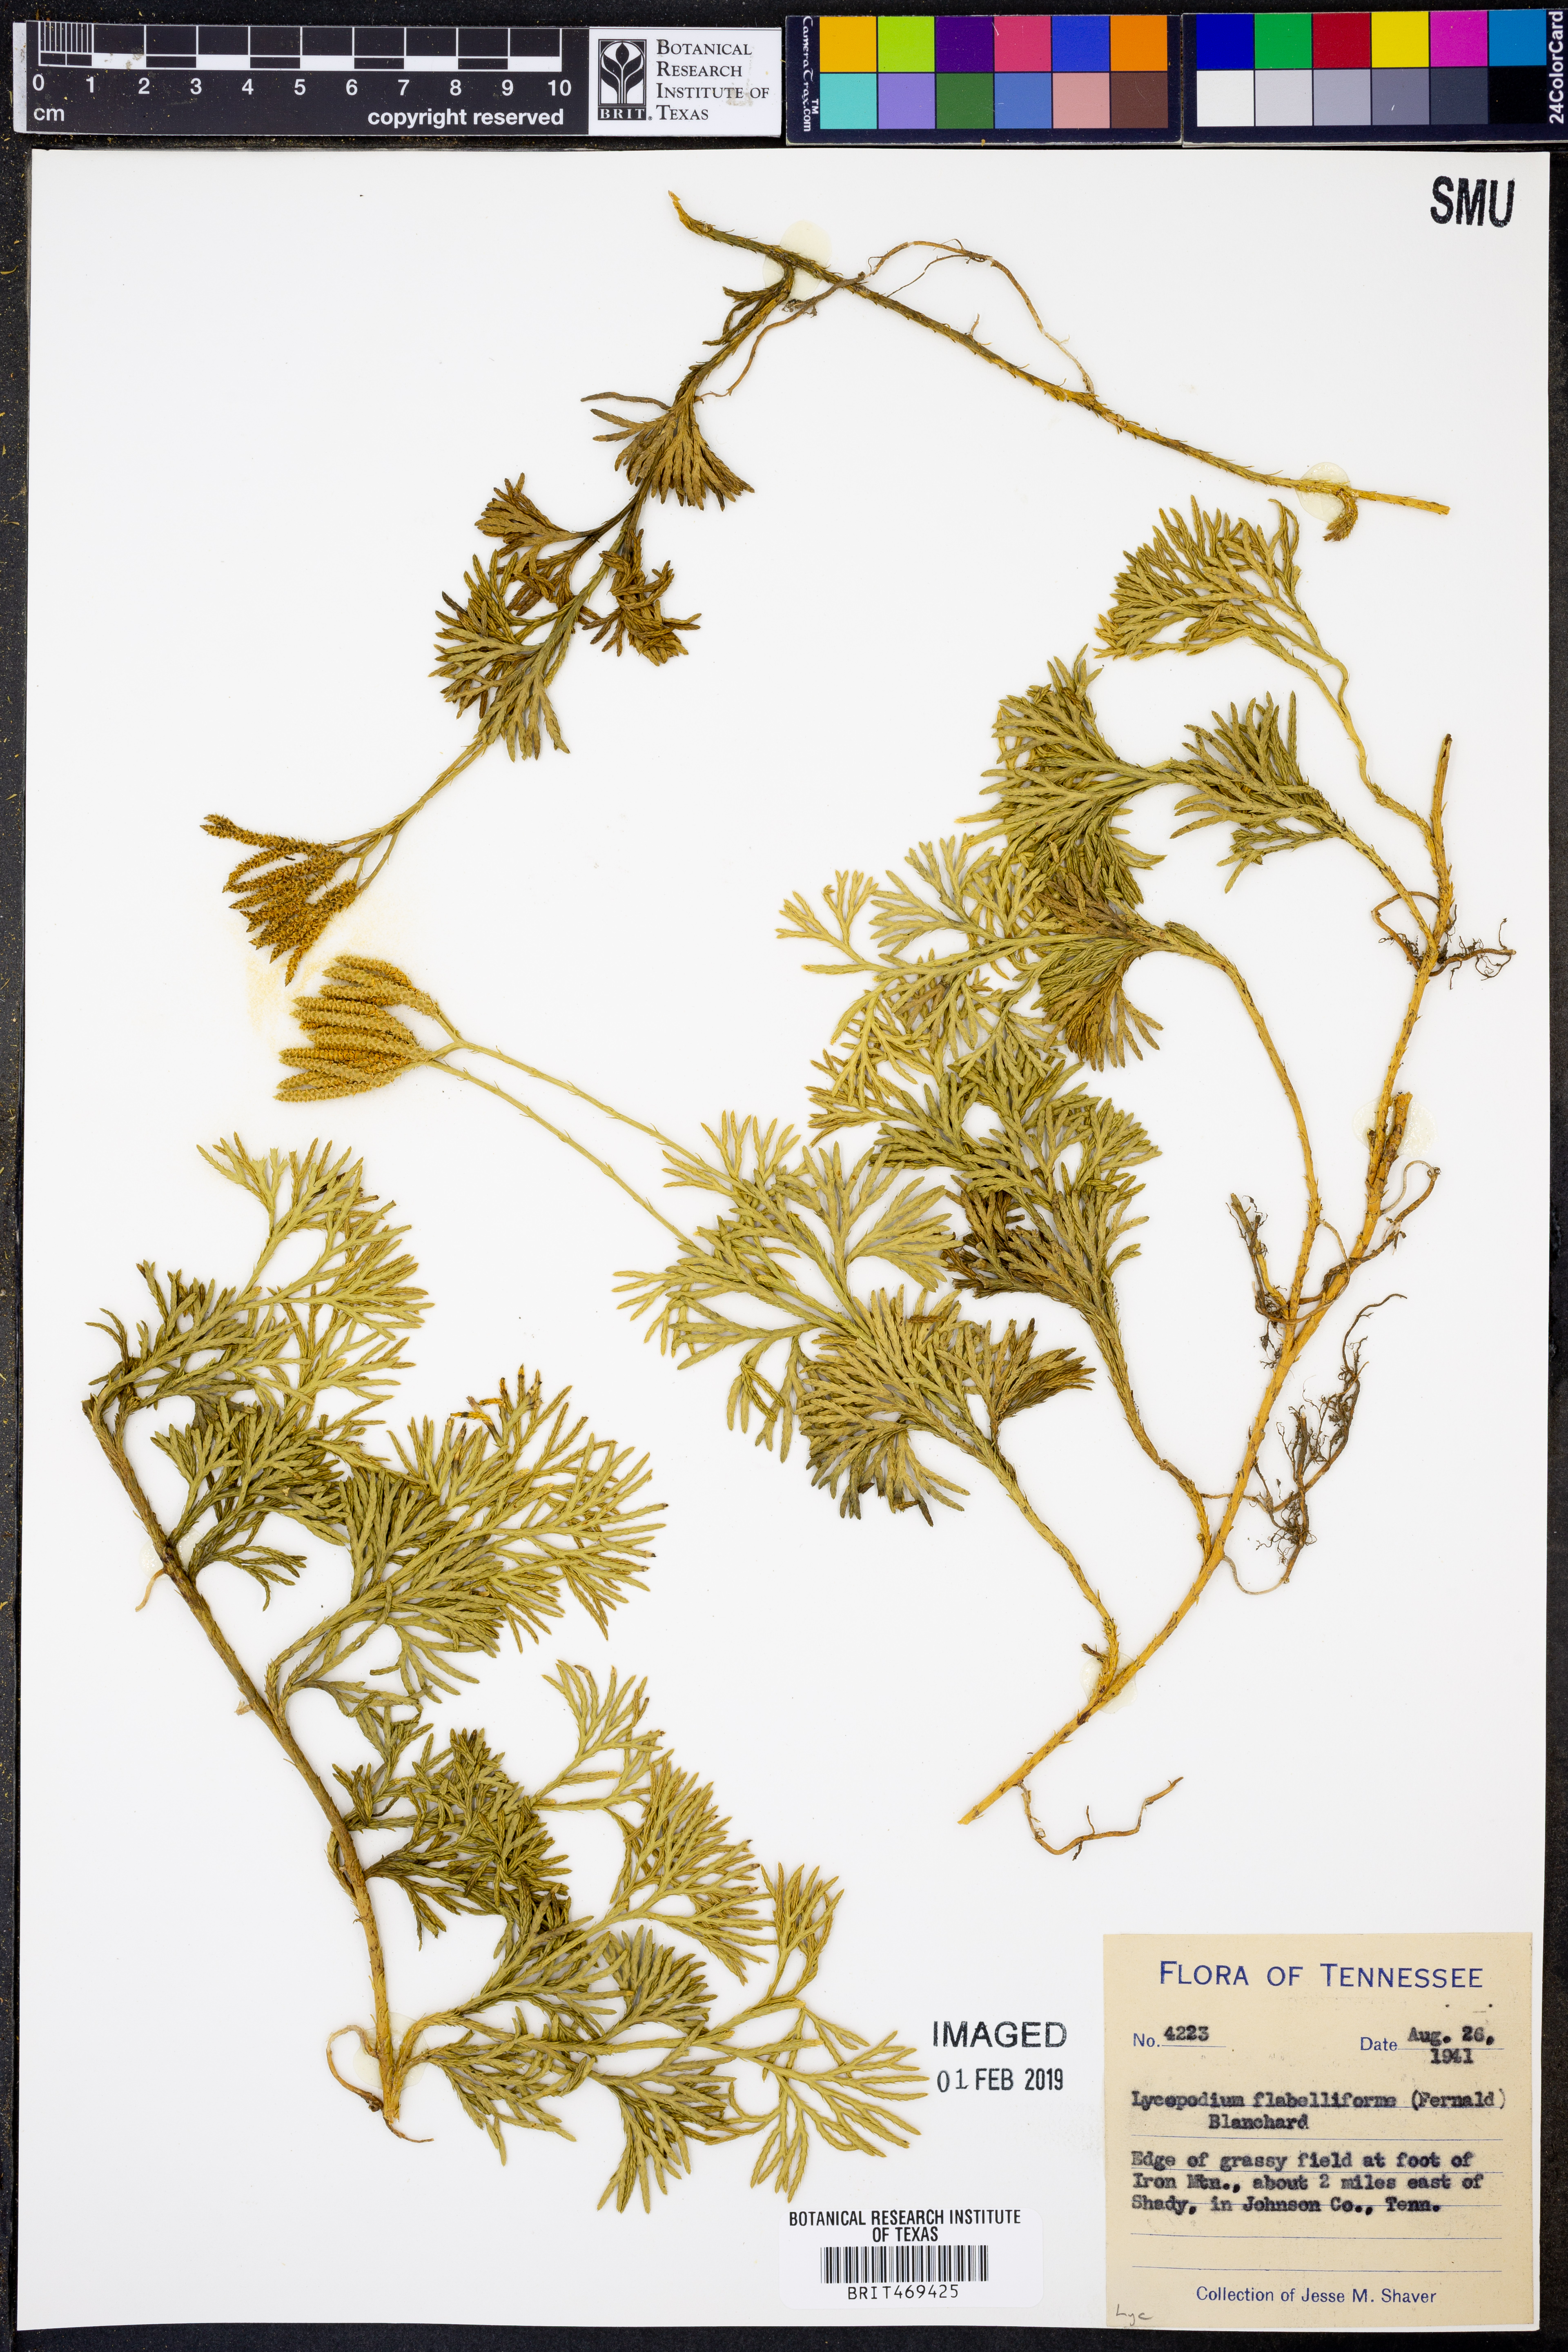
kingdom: Plantae
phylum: Tracheophyta
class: Lycopodiopsida
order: Lycopodiales
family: Lycopodiaceae
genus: Diphasiastrum
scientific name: Diphasiastrum digitatum
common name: Southern running-pine
